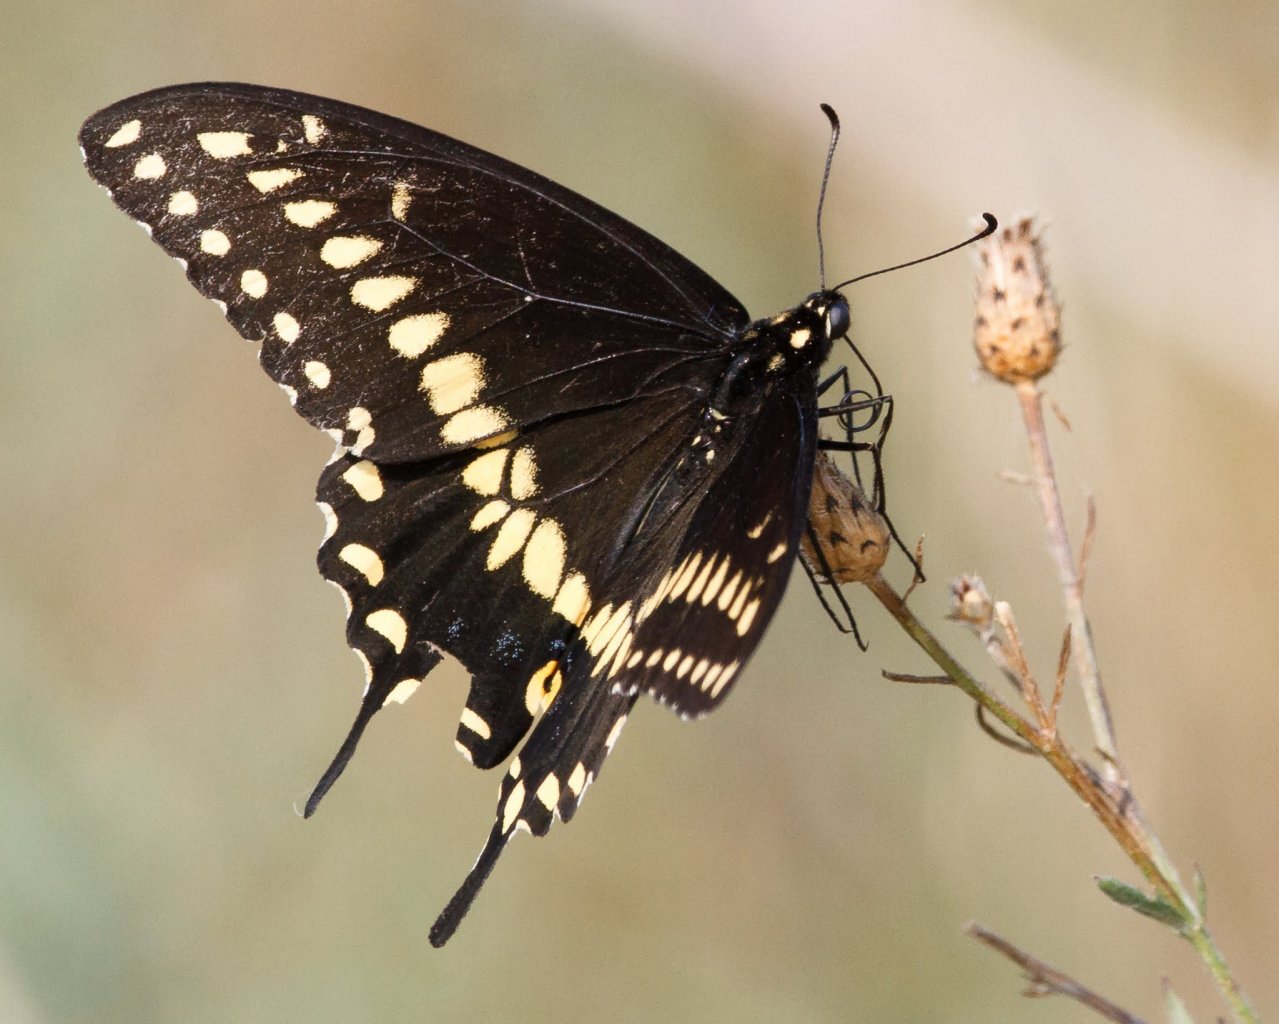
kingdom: Animalia
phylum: Arthropoda
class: Insecta
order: Lepidoptera
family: Papilionidae
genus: Papilio
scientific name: Papilio polyxenes
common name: Black Swallowtail
